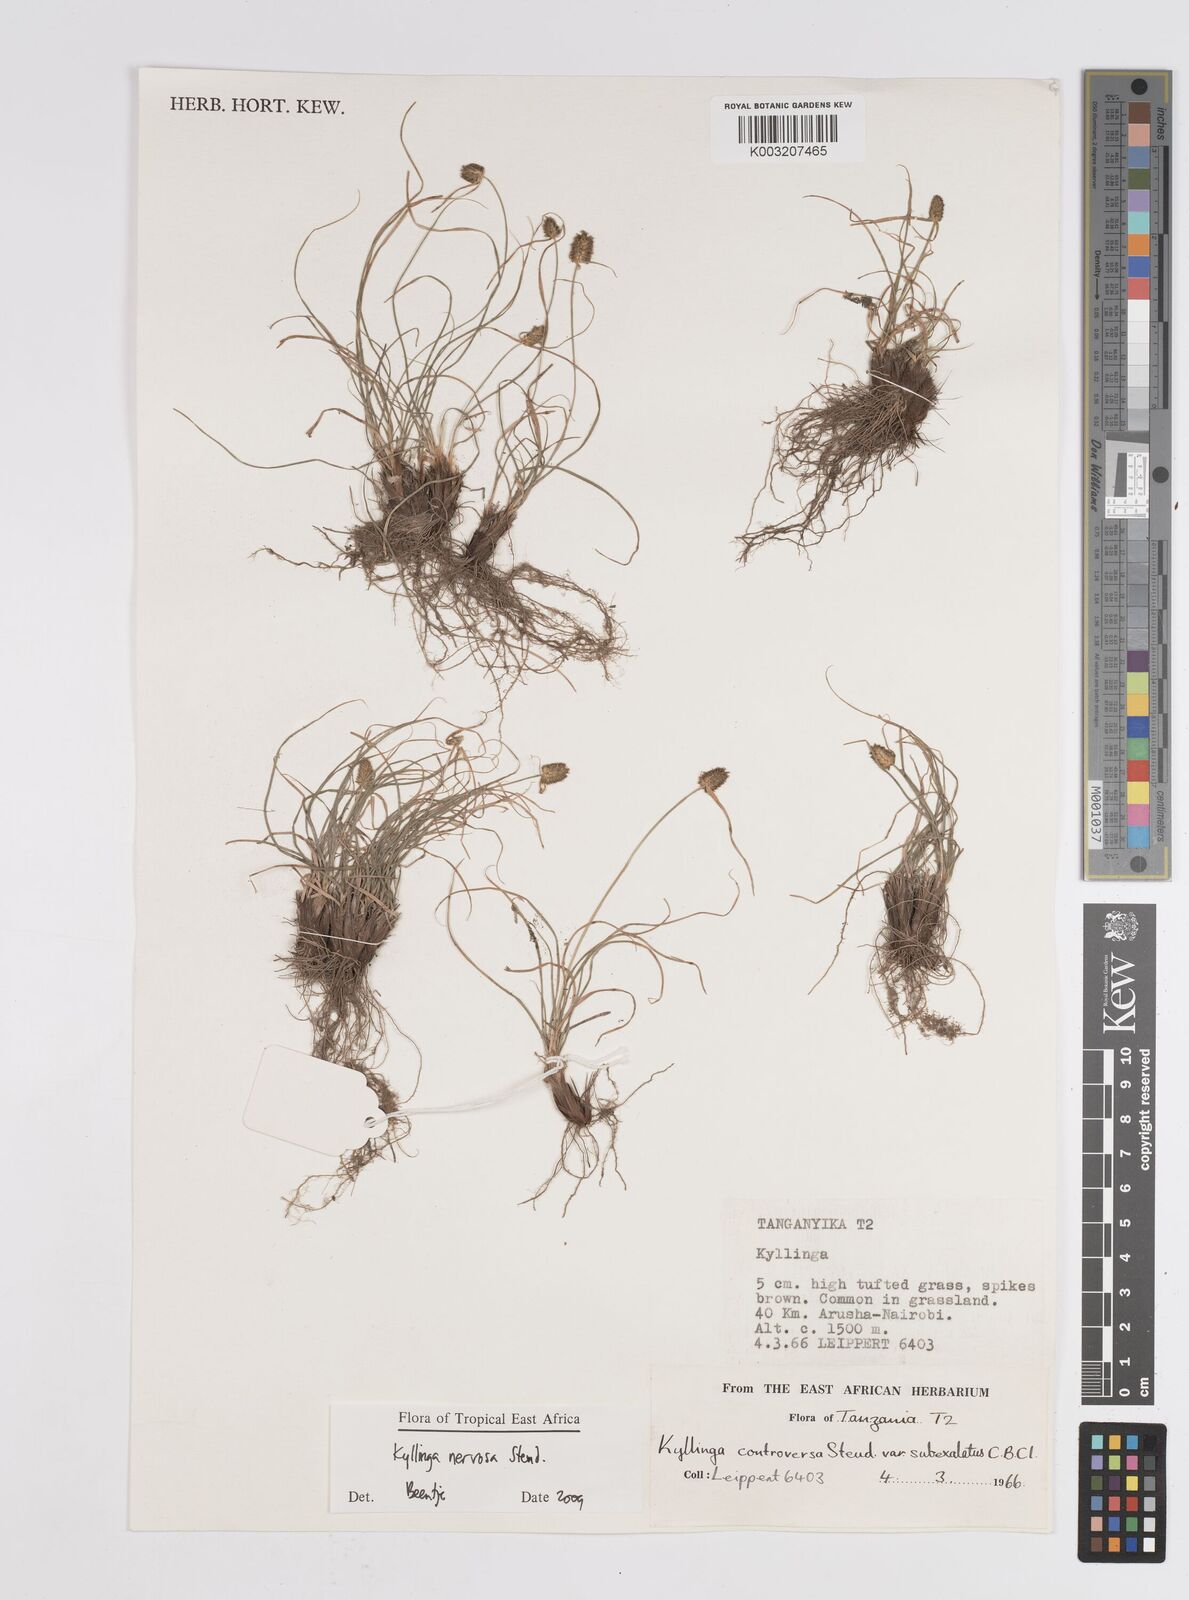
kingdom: Plantae
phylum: Tracheophyta
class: Liliopsida
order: Poales
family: Cyperaceae
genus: Cyperus
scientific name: Cyperus
